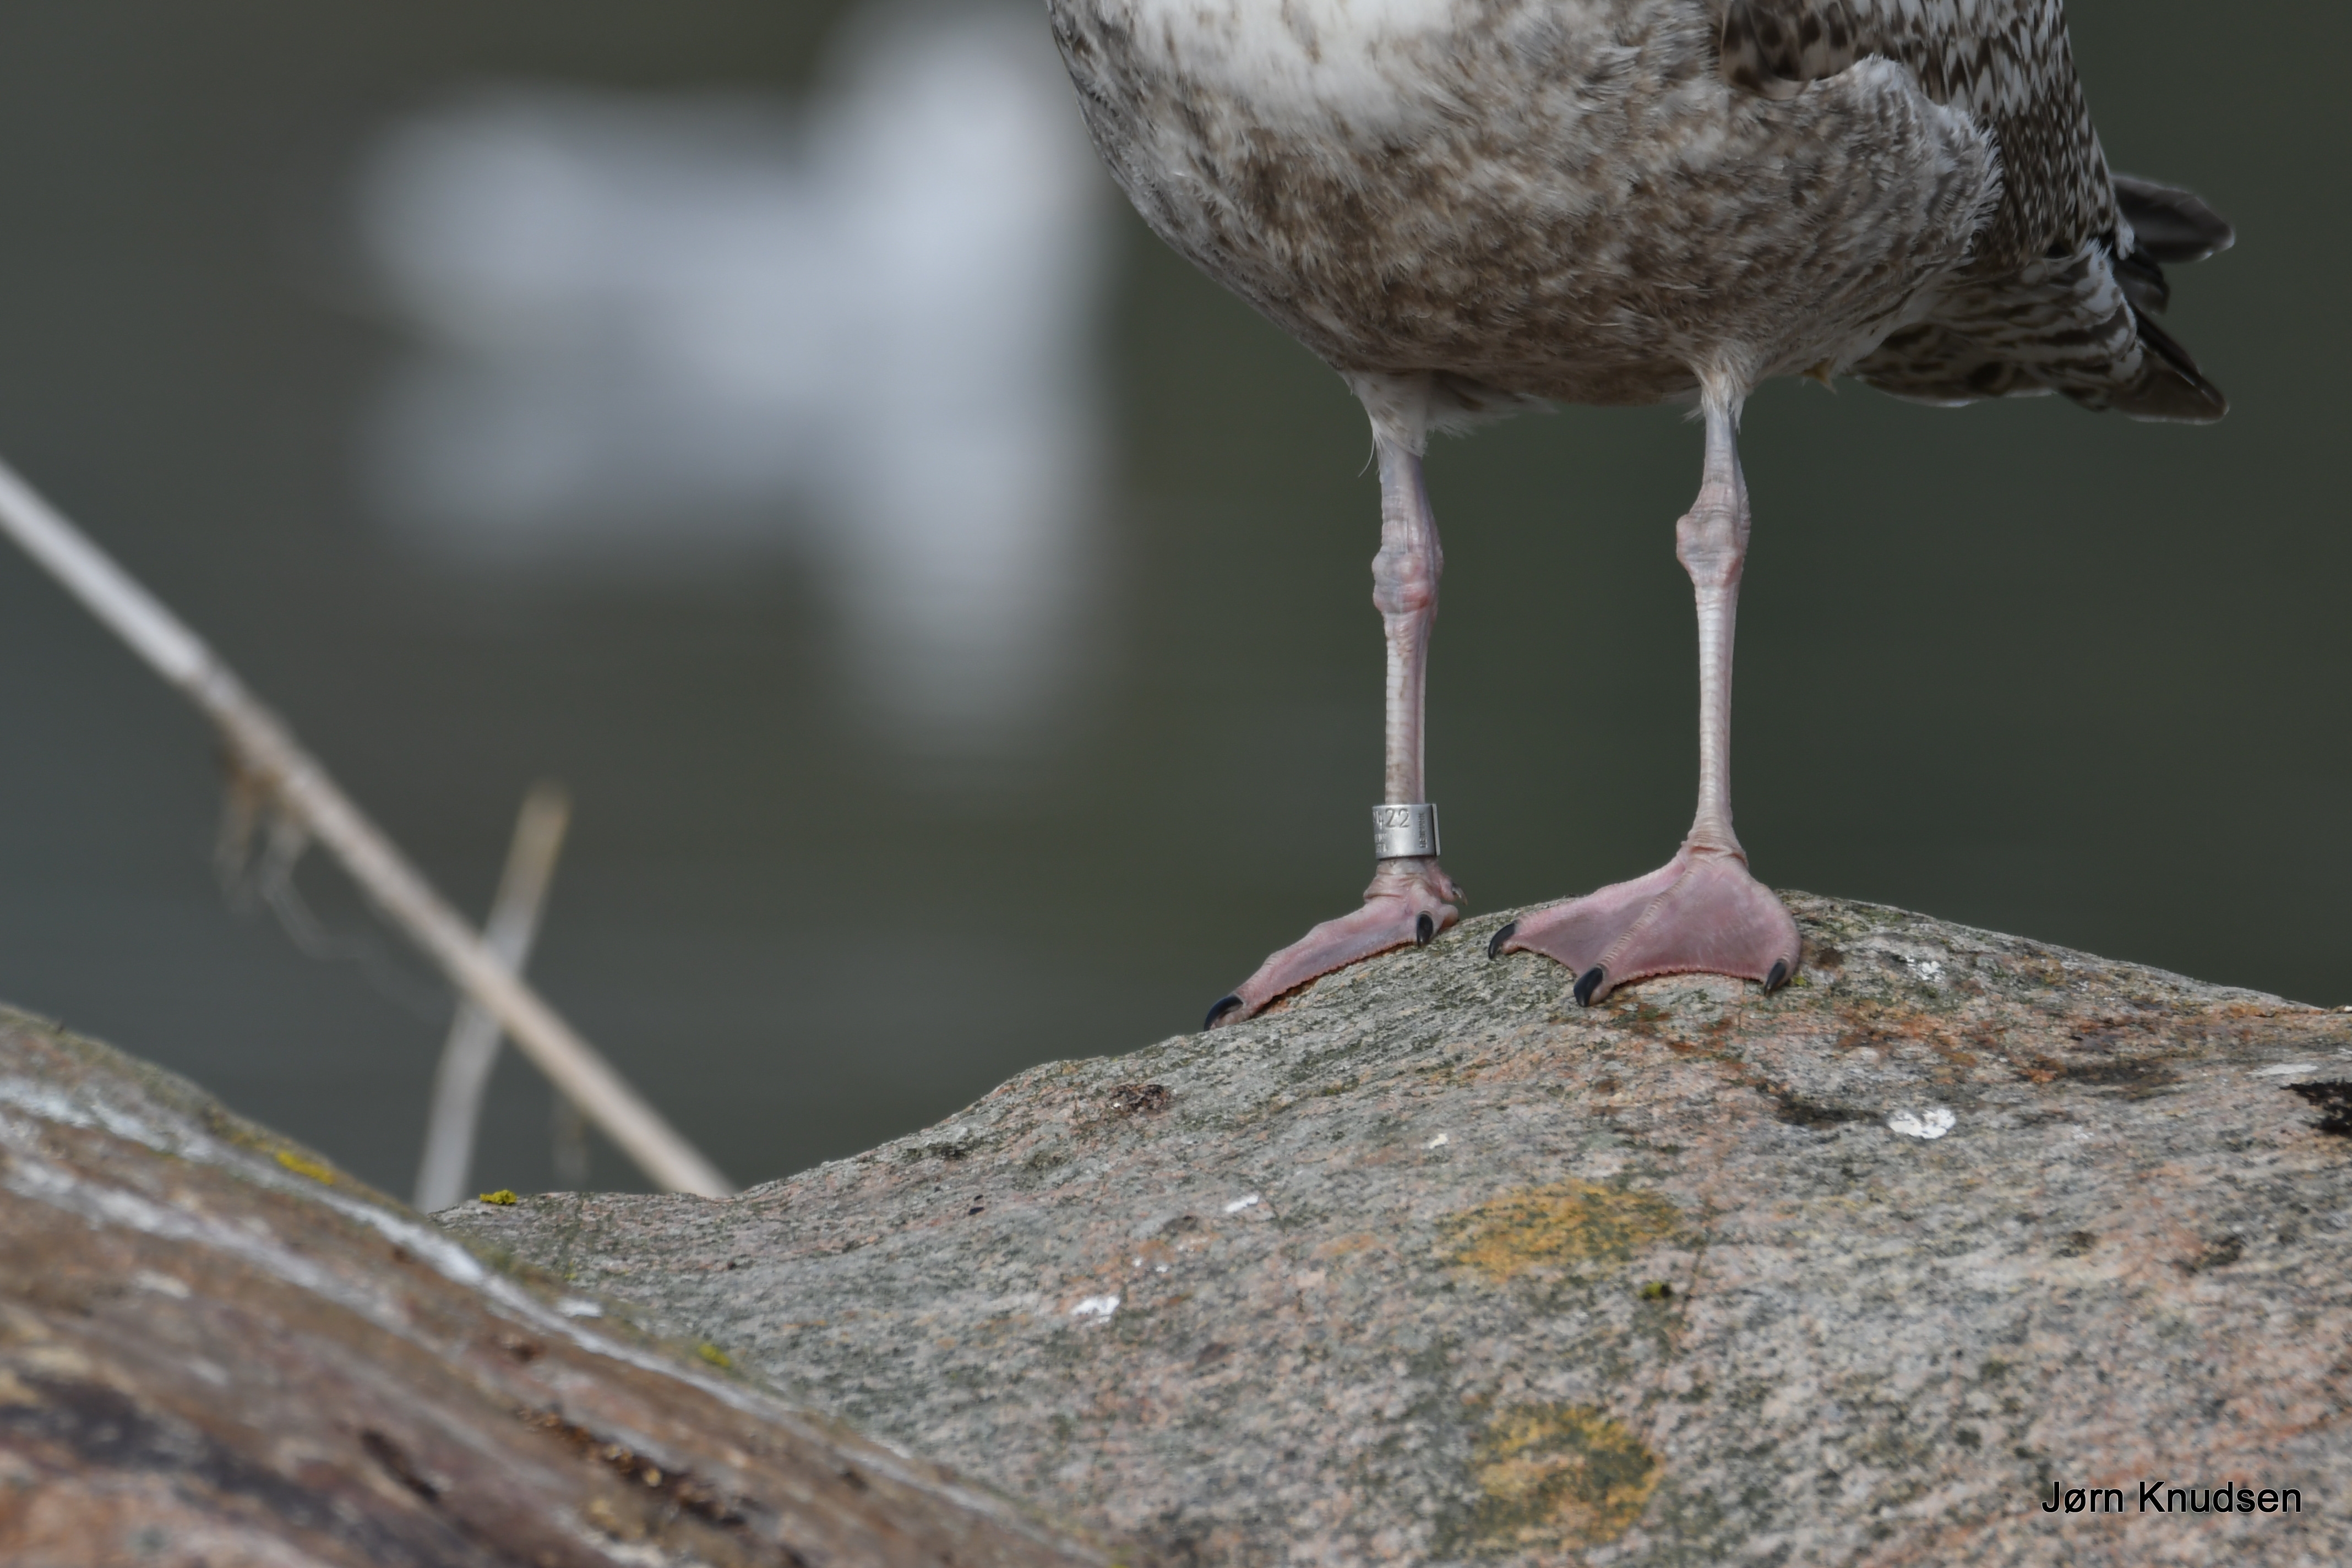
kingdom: Animalia
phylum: Chordata
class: Aves
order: Charadriiformes
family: Laridae
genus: Larus
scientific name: Larus argentatus
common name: Sølvmåge
